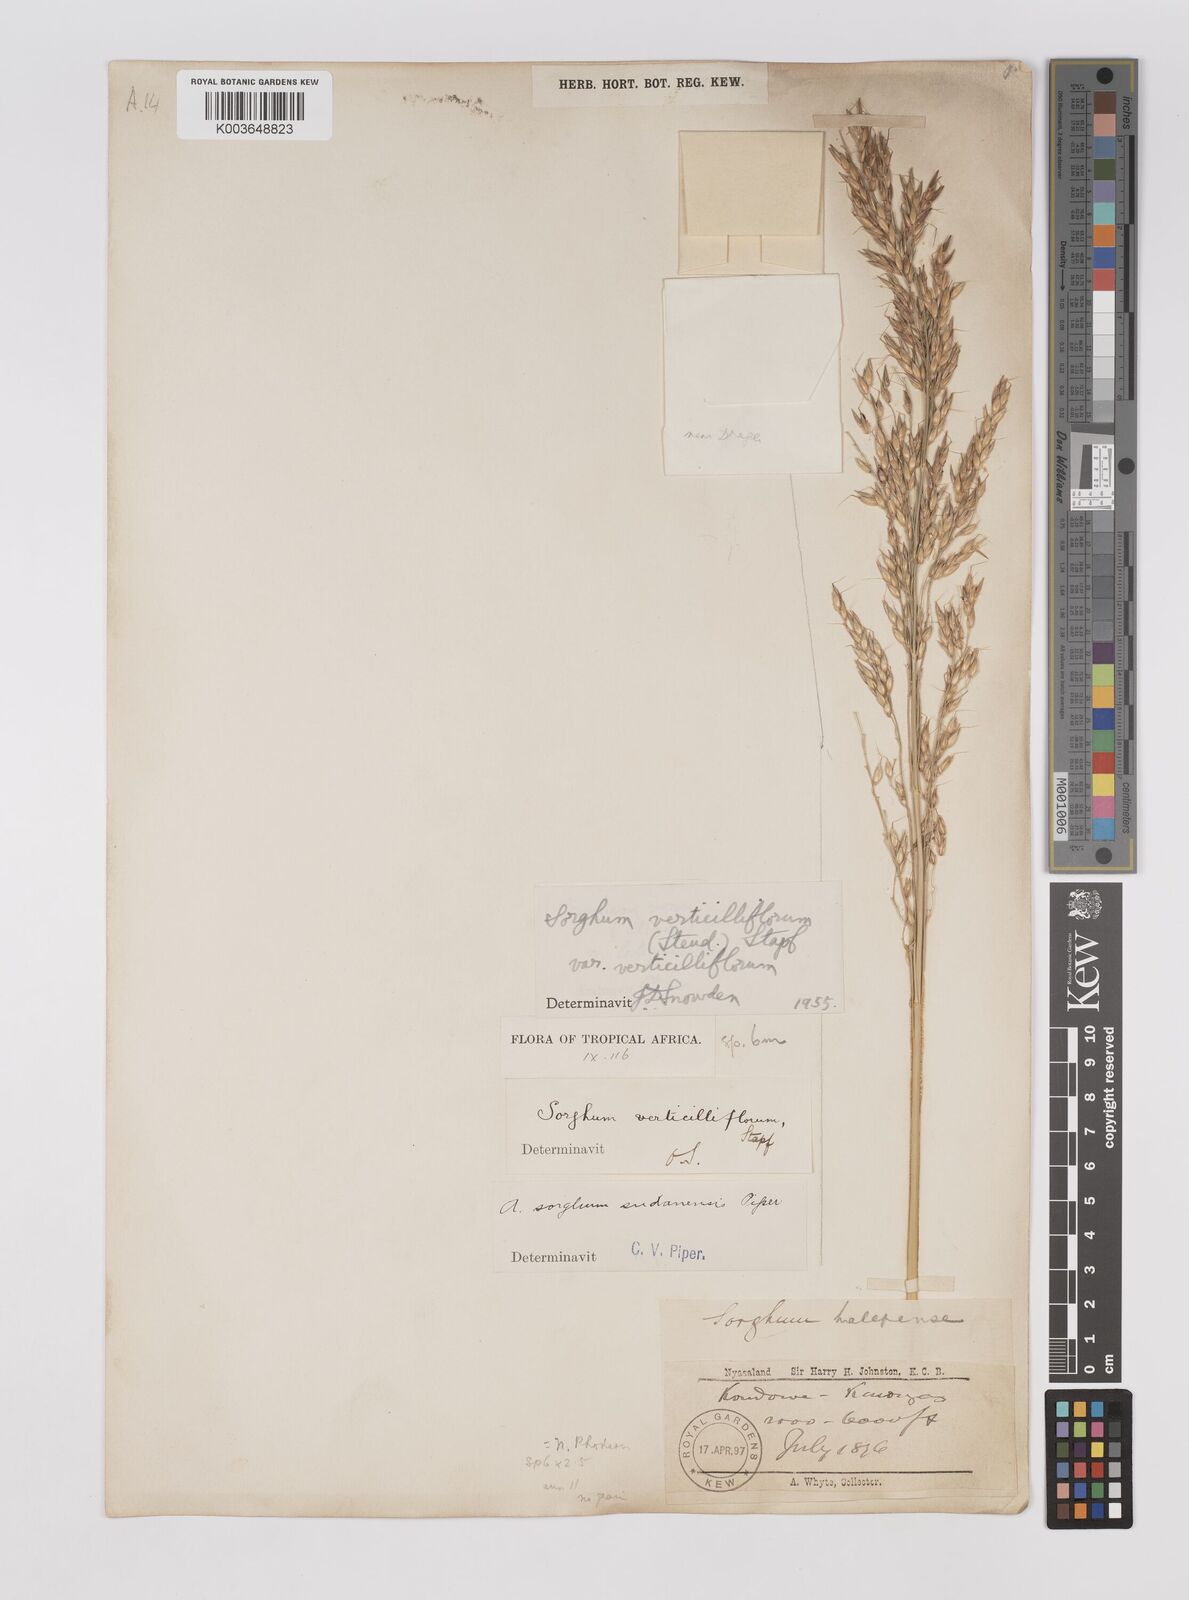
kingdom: Plantae
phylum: Tracheophyta
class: Liliopsida
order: Poales
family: Poaceae
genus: Sorghum
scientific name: Sorghum arundinaceum
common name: Sorghum
